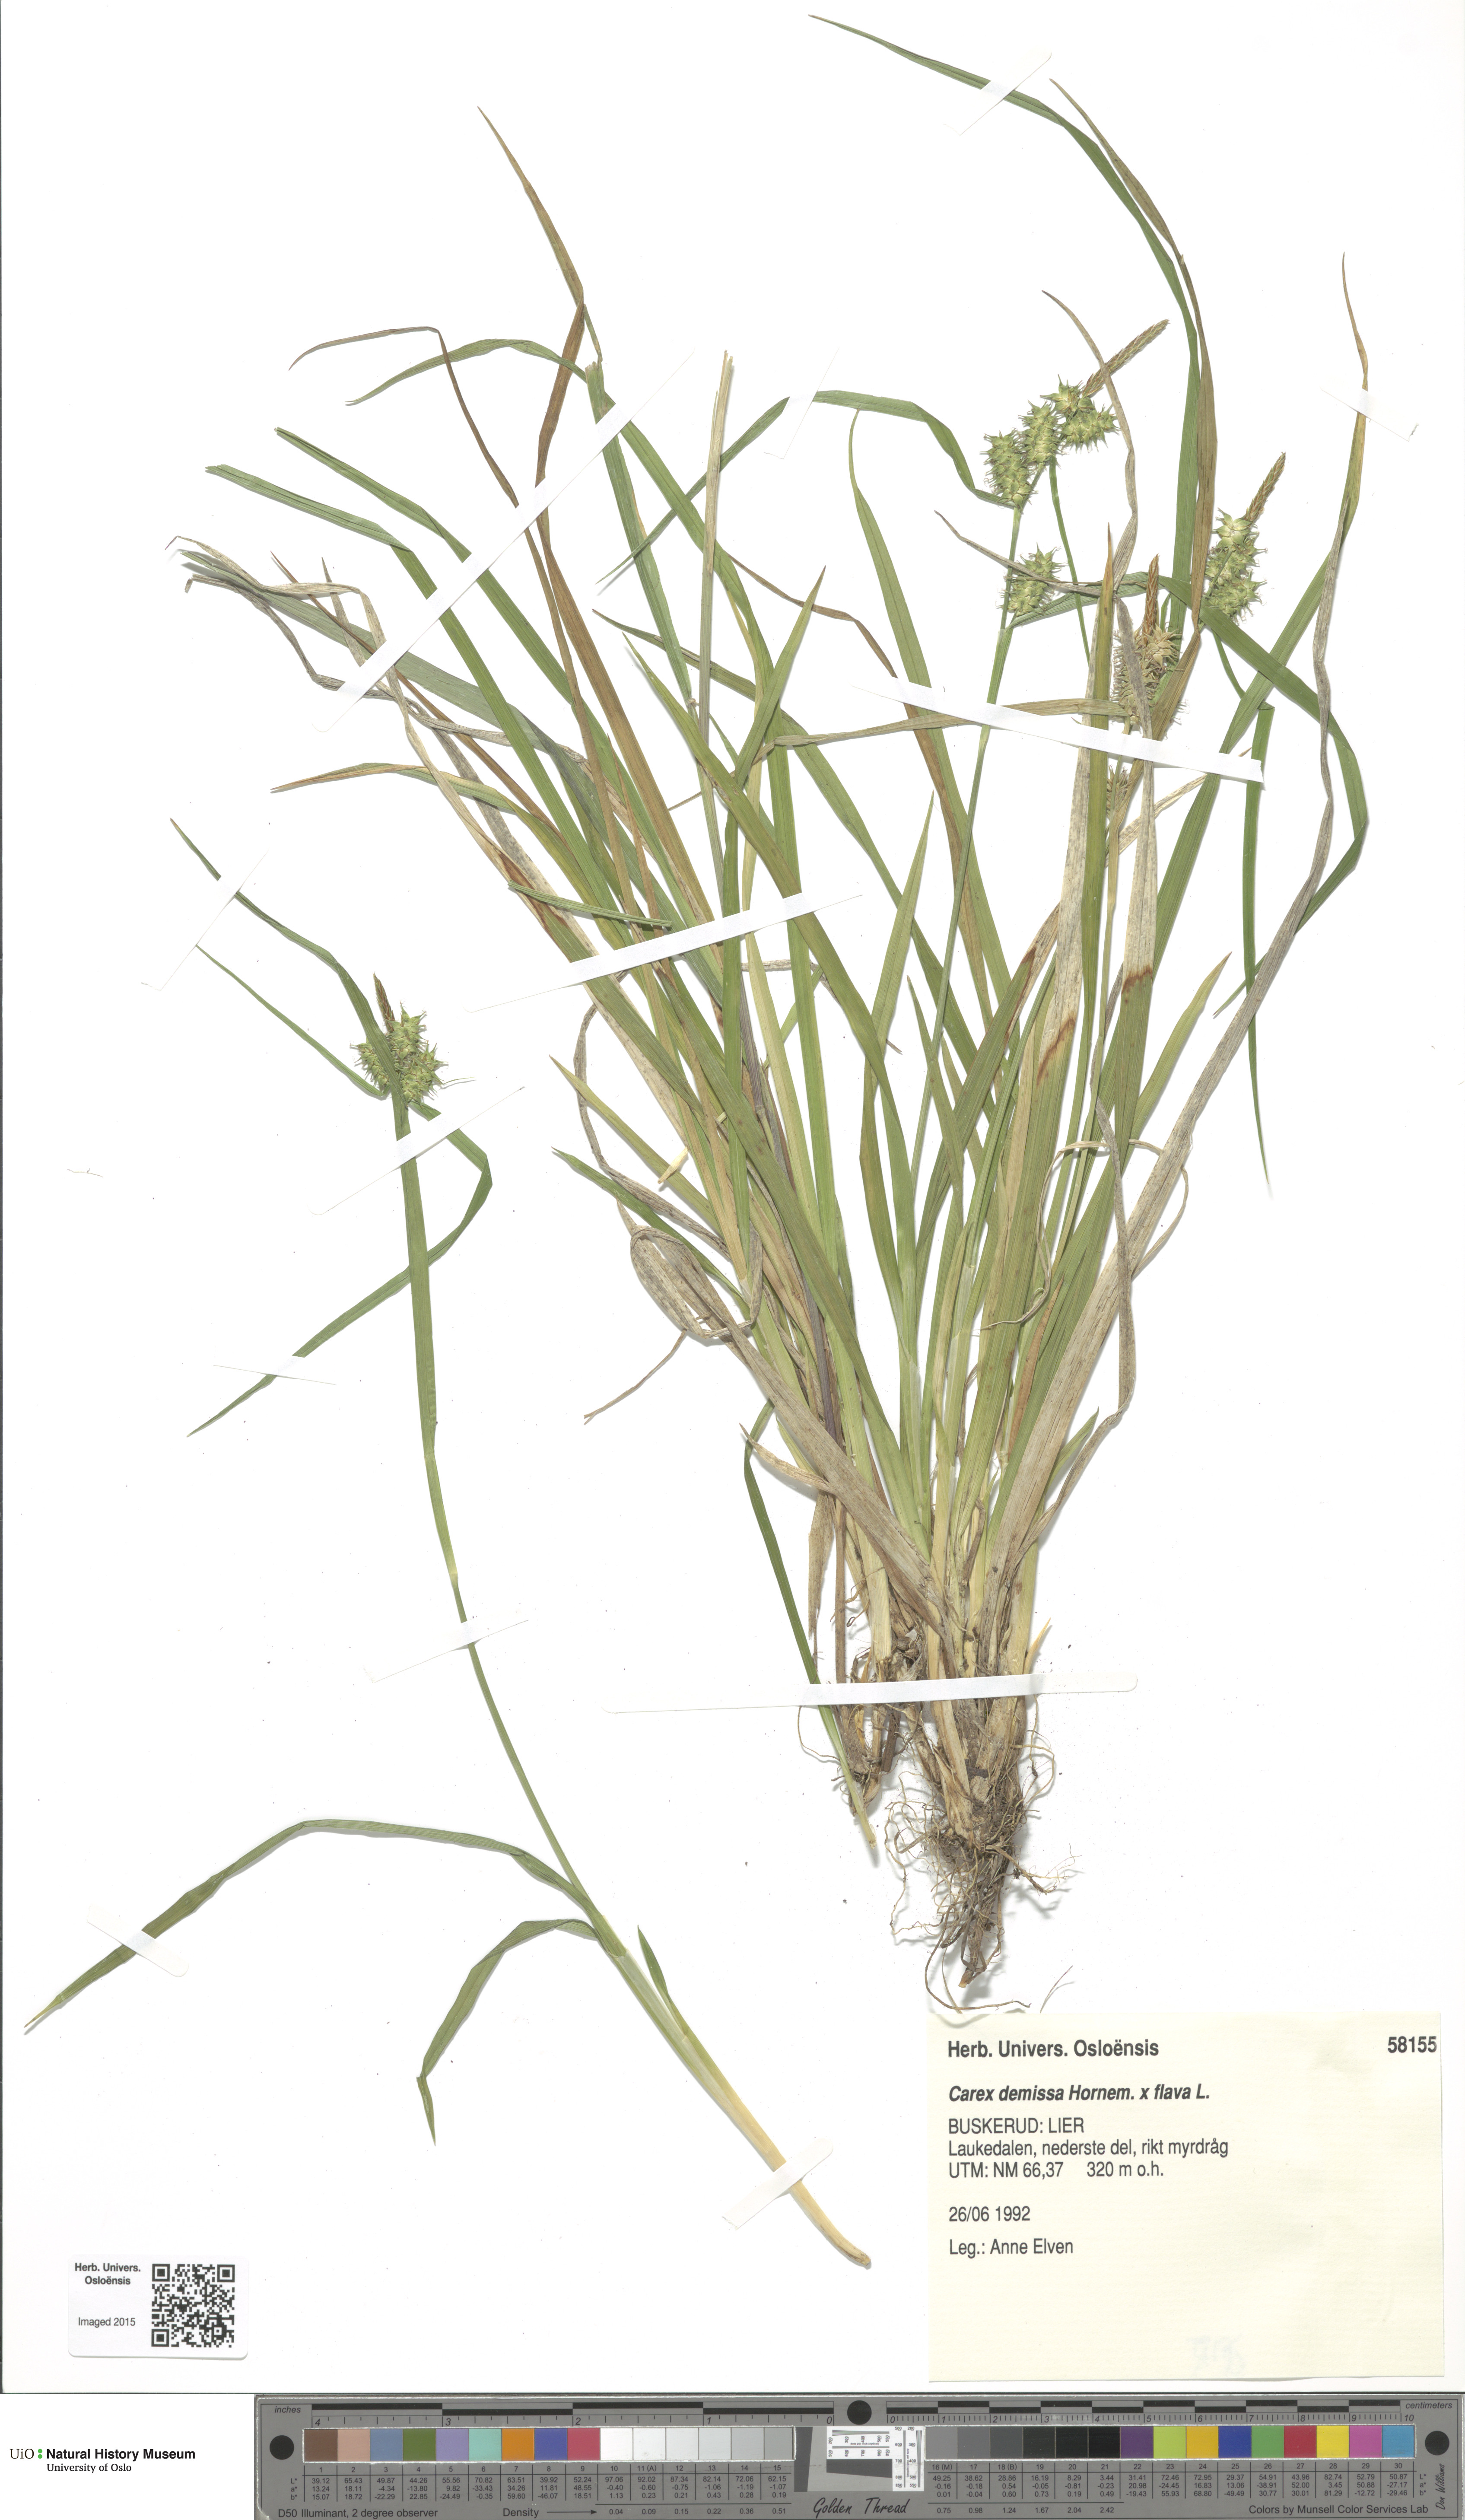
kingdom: Plantae
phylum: Tracheophyta
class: Liliopsida
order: Poales
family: Cyperaceae
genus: Carex
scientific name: Carex
